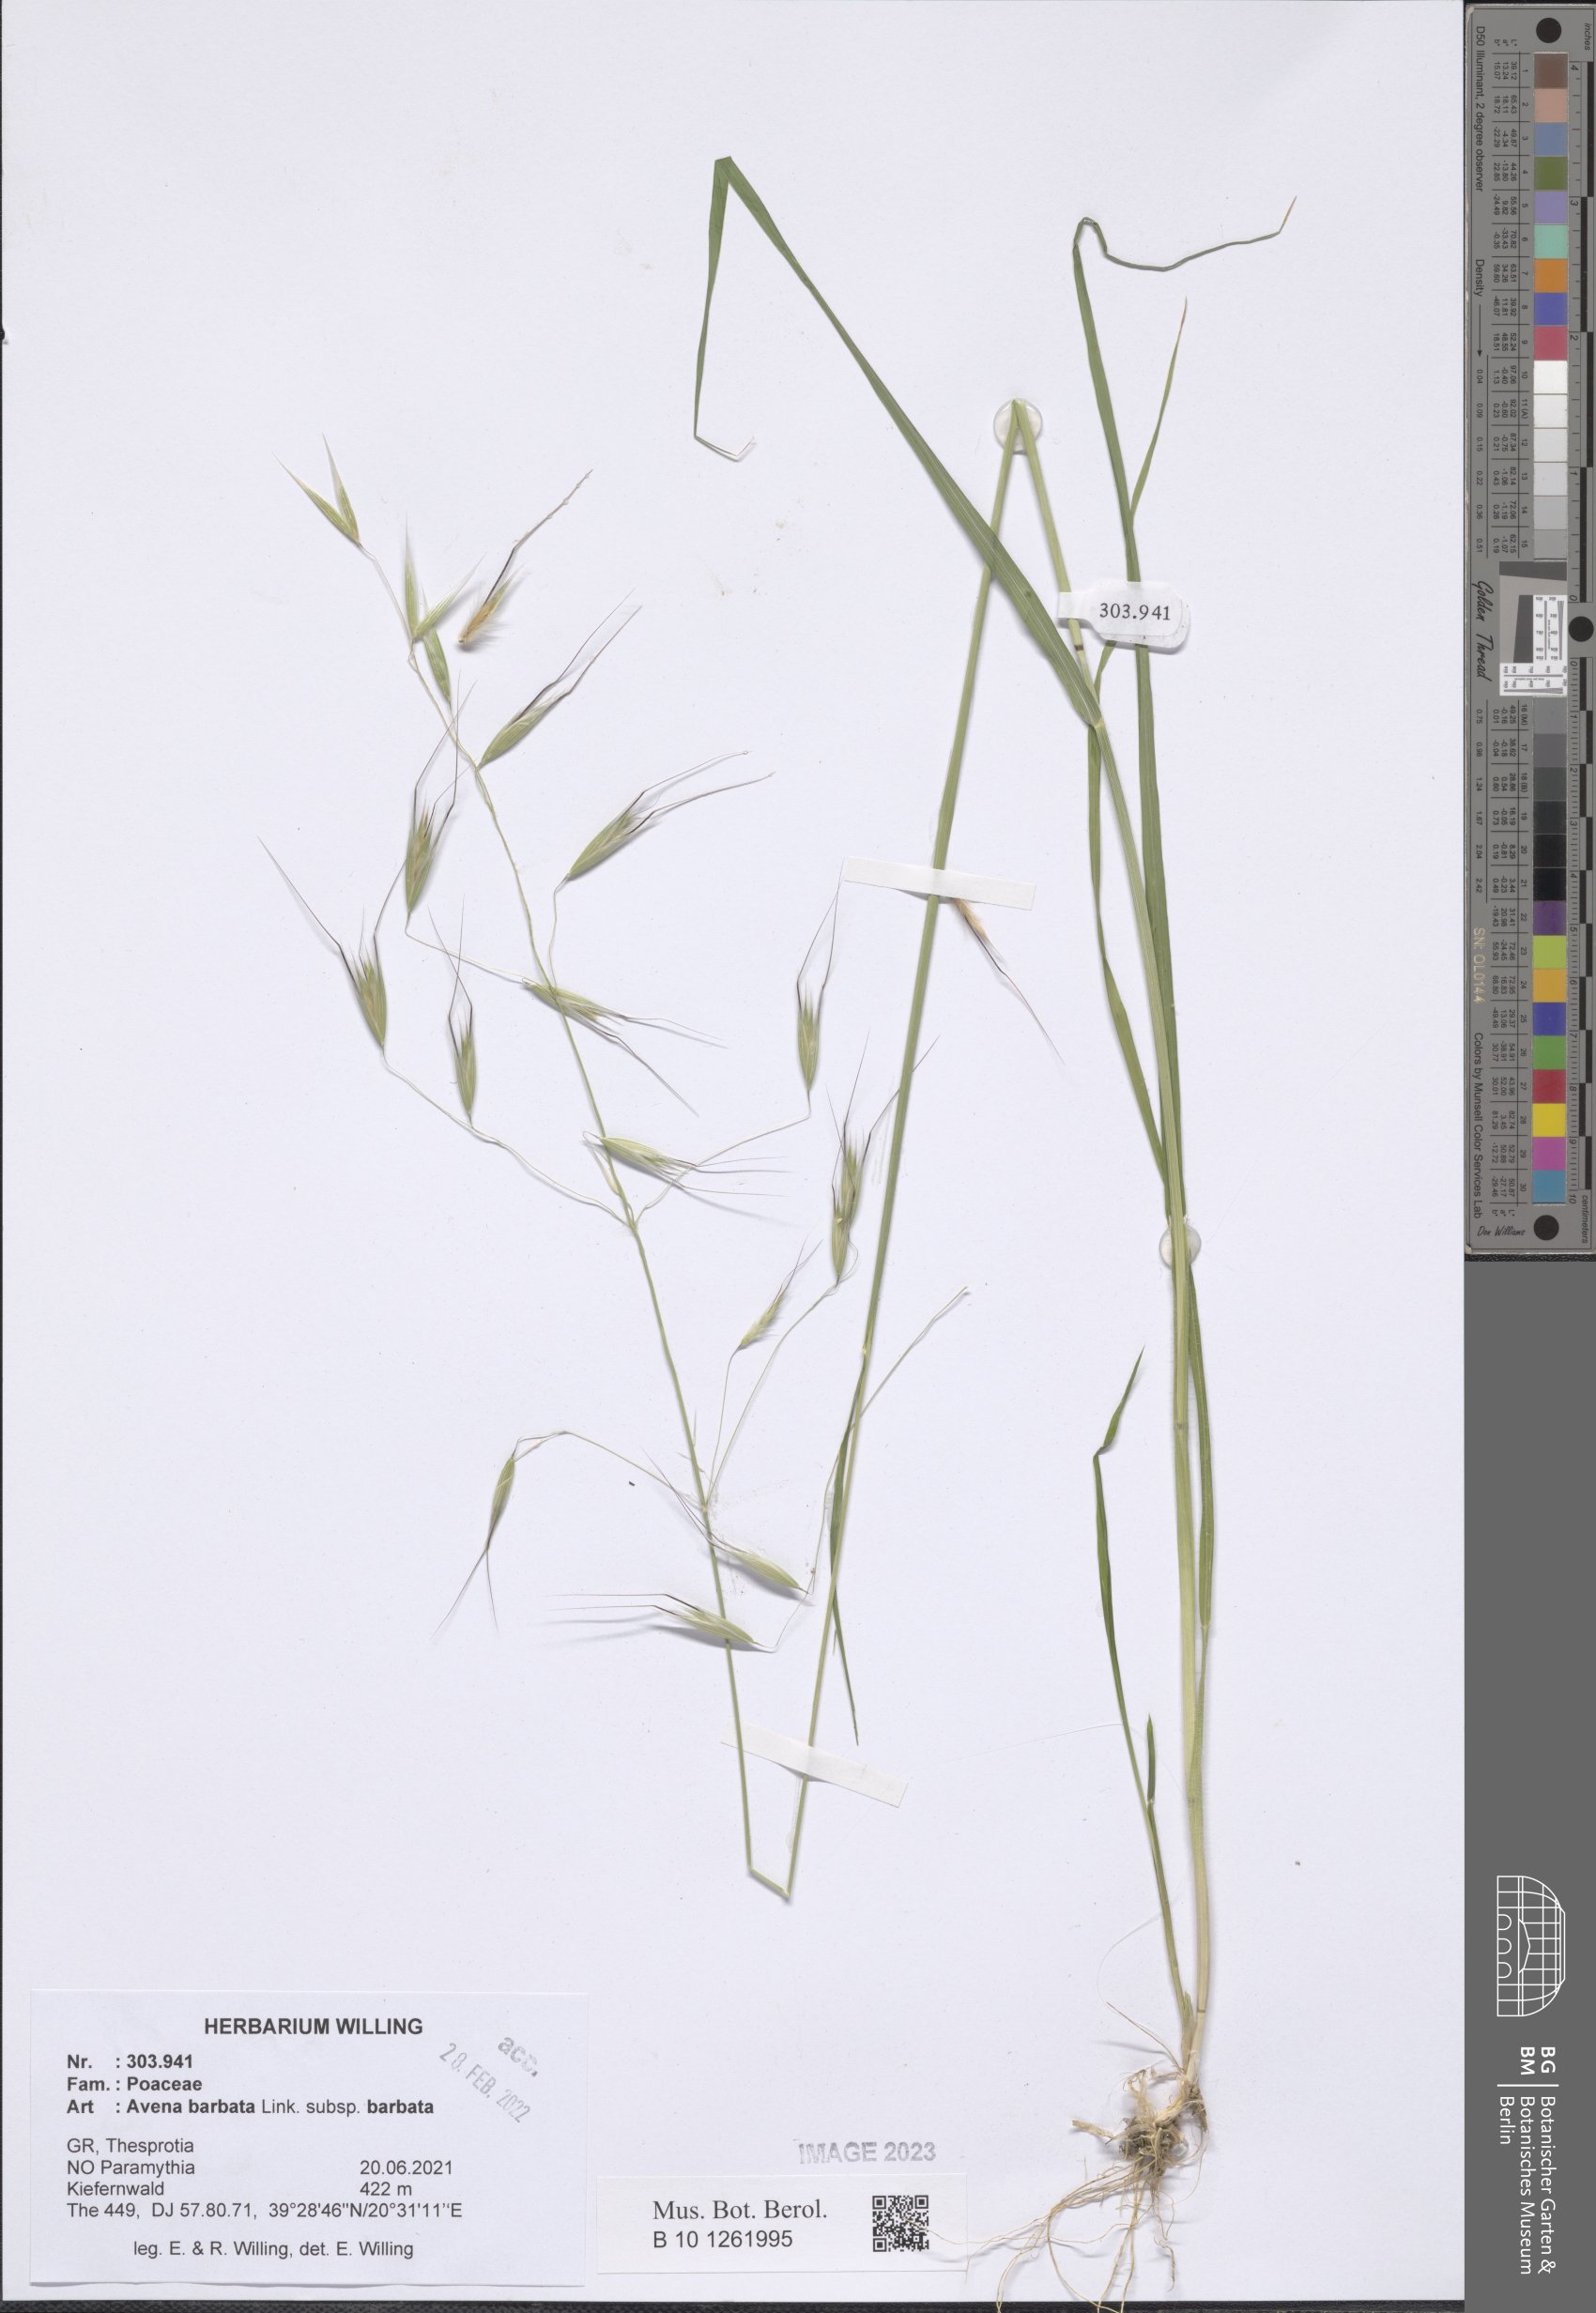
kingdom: Plantae
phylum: Tracheophyta
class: Liliopsida
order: Poales
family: Poaceae
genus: Avena
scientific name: Avena barbata
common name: Slender oat
